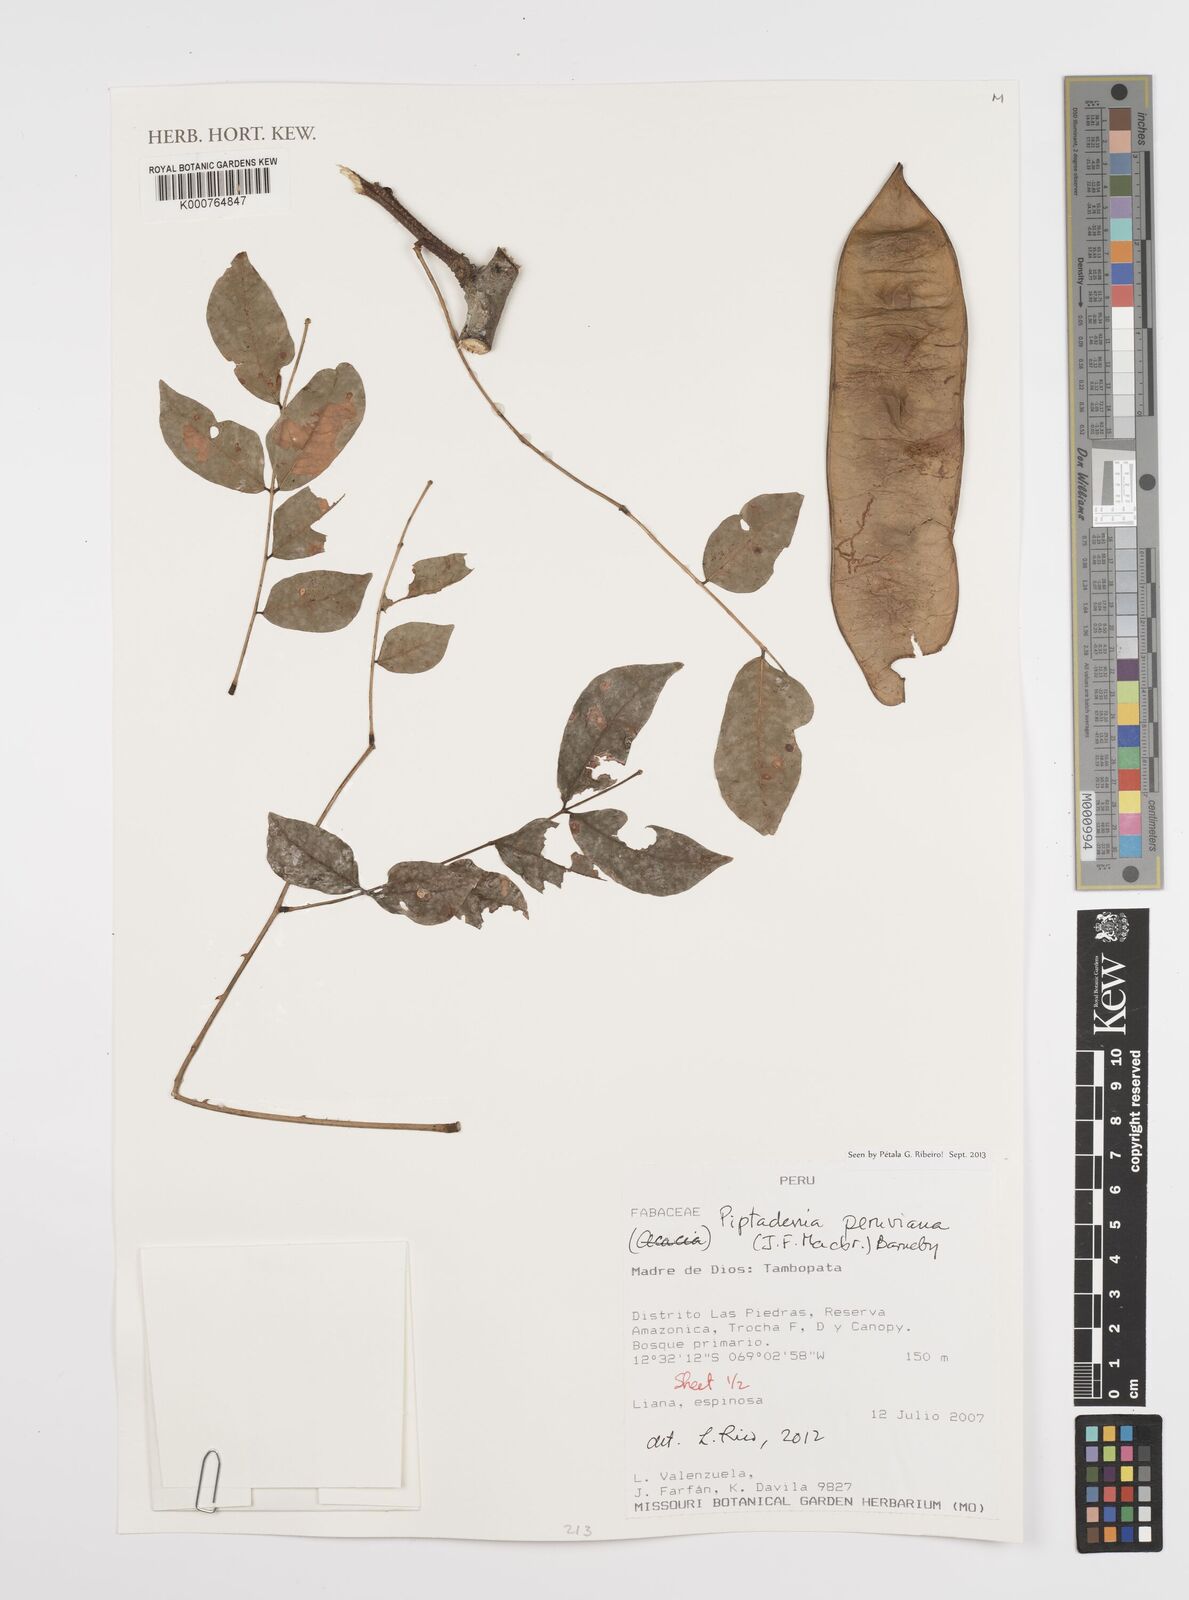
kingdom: Plantae
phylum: Tracheophyta
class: Magnoliopsida
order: Fabales
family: Fabaceae
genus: Piptadenia
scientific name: Piptadenia peruviana
